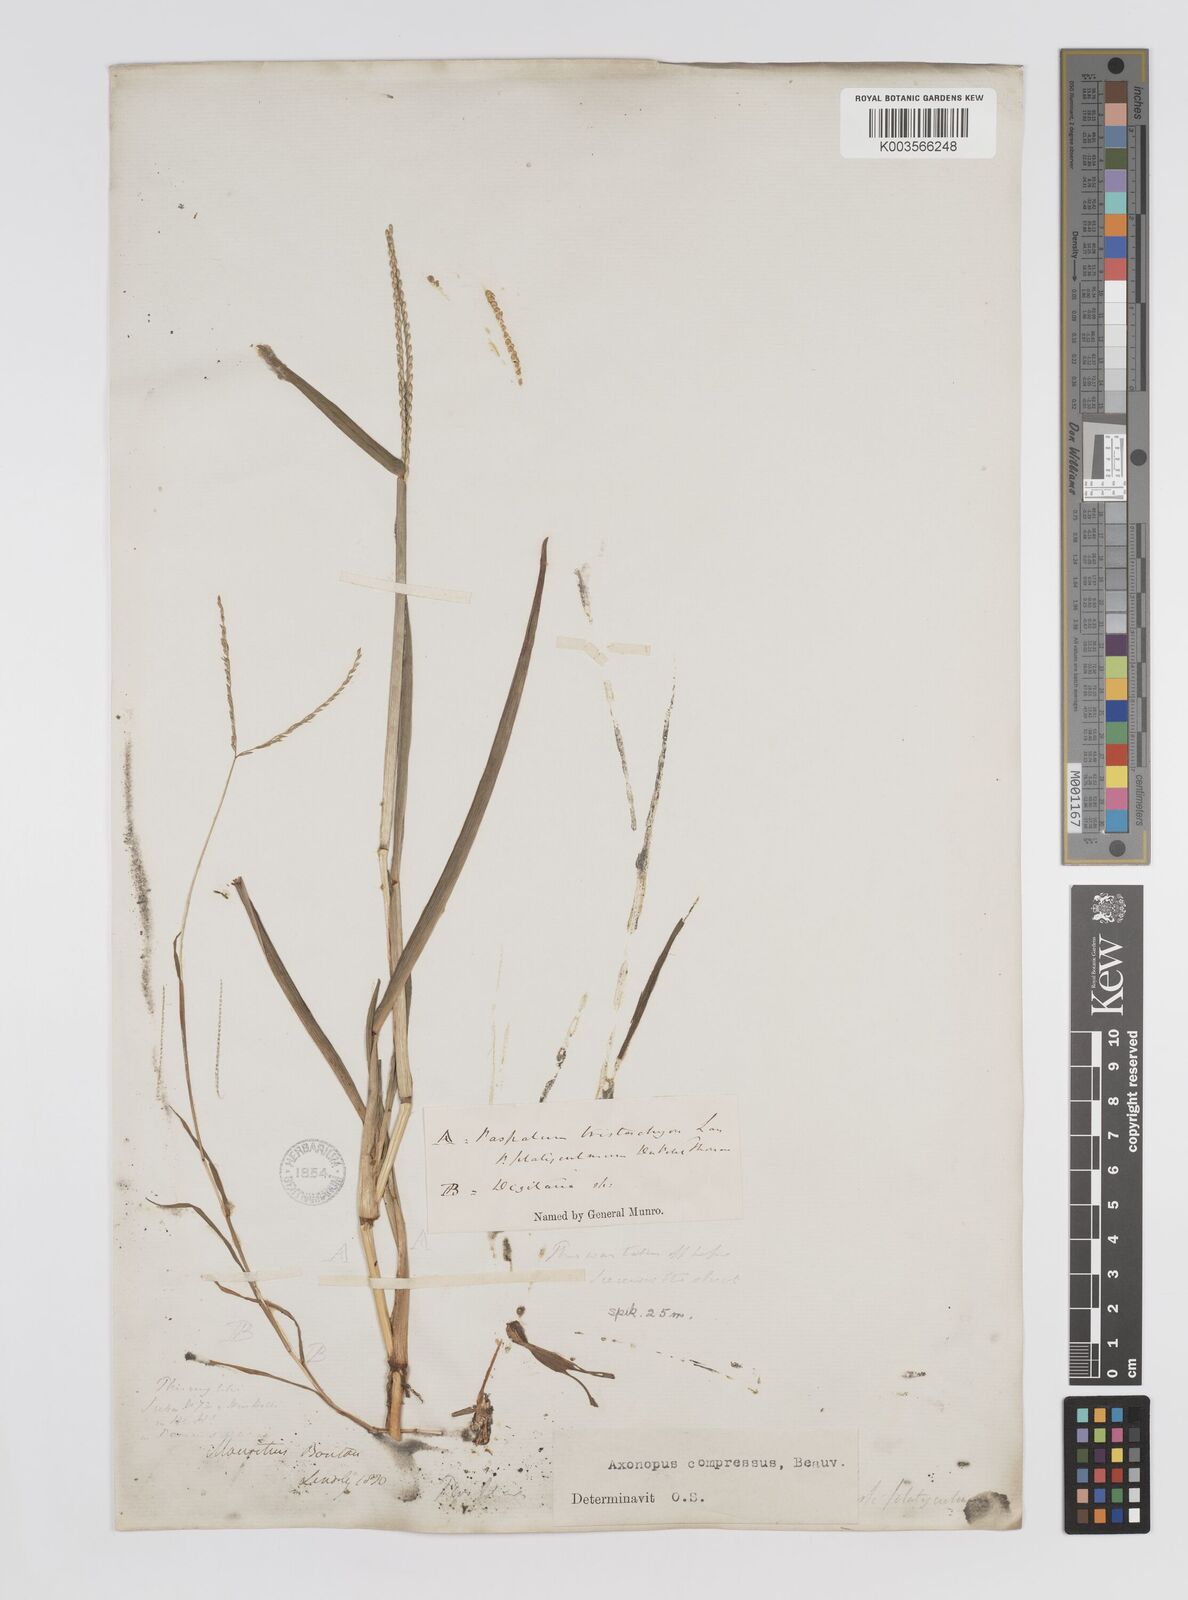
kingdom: Plantae
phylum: Tracheophyta
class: Liliopsida
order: Poales
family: Poaceae
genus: Axonopus
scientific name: Axonopus compressus
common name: American carpet grass
